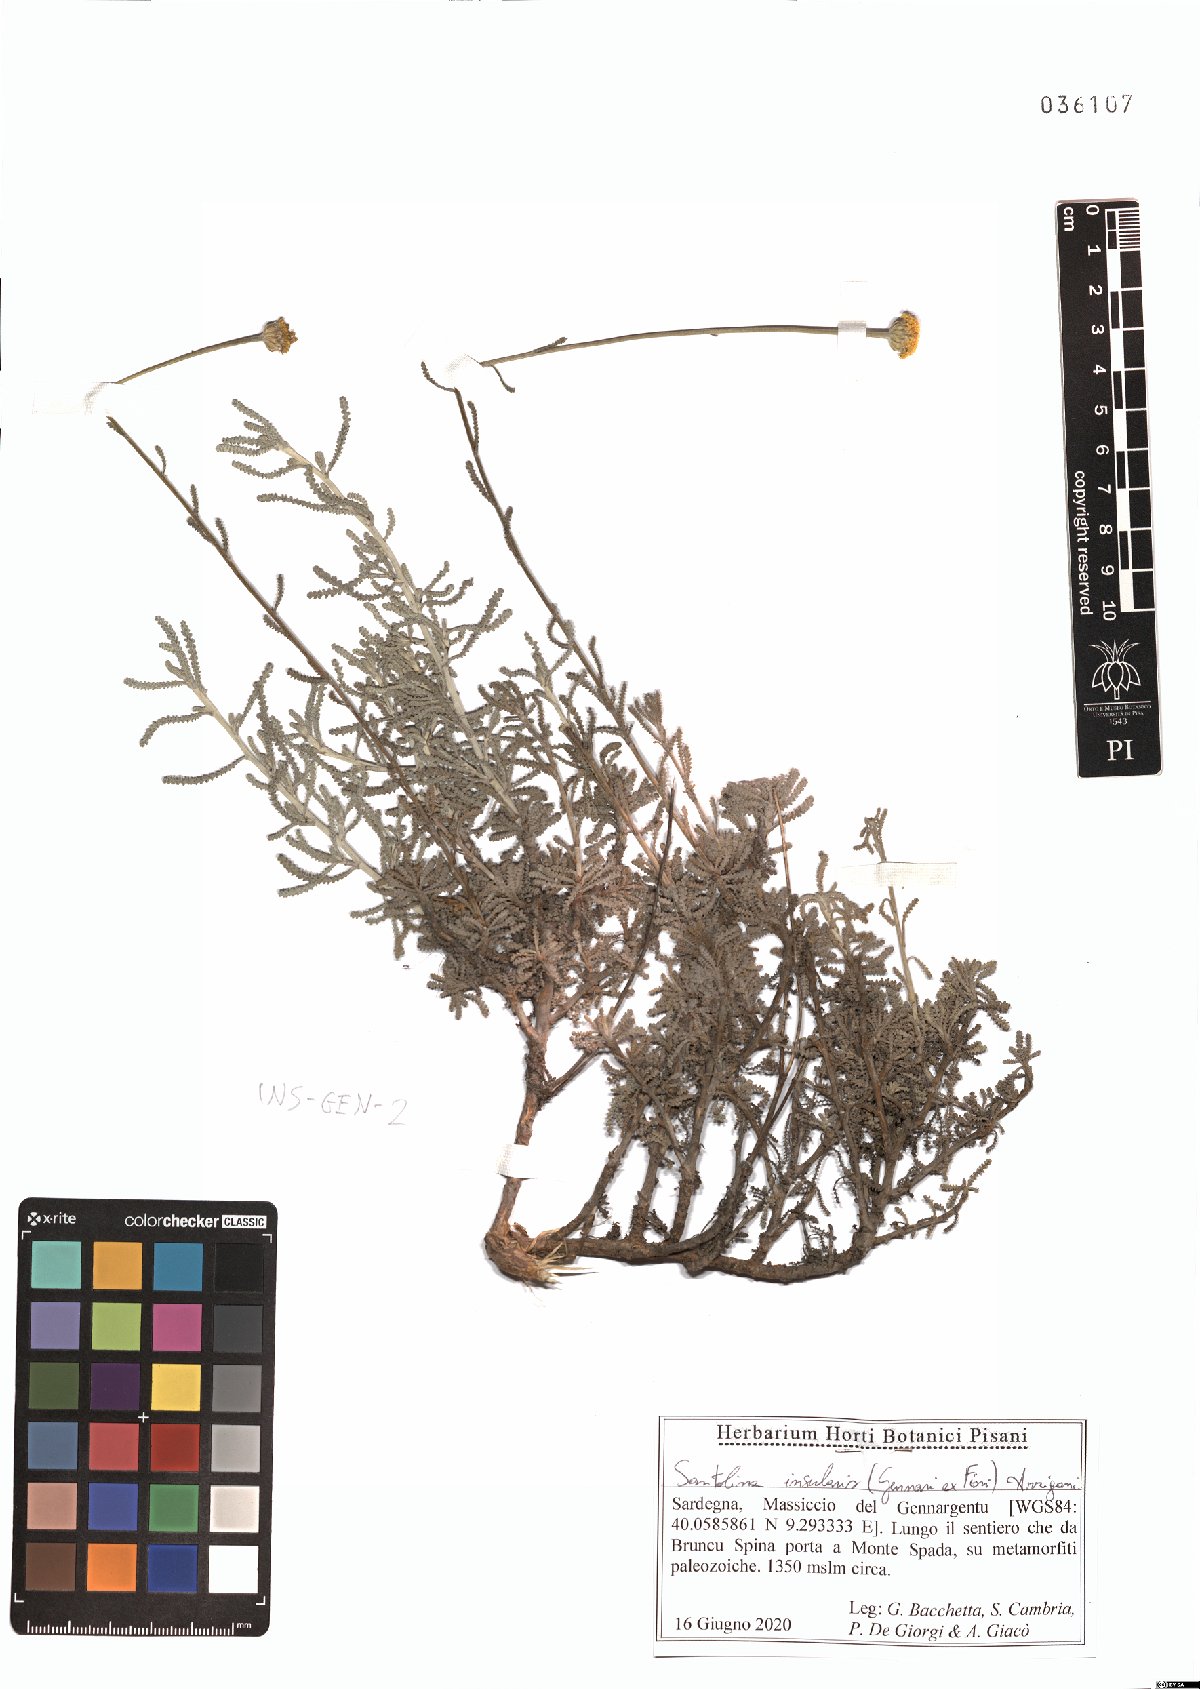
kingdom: Plantae
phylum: Tracheophyta
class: Magnoliopsida
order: Asterales
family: Asteraceae
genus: Santolina
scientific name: Santolina insularis
